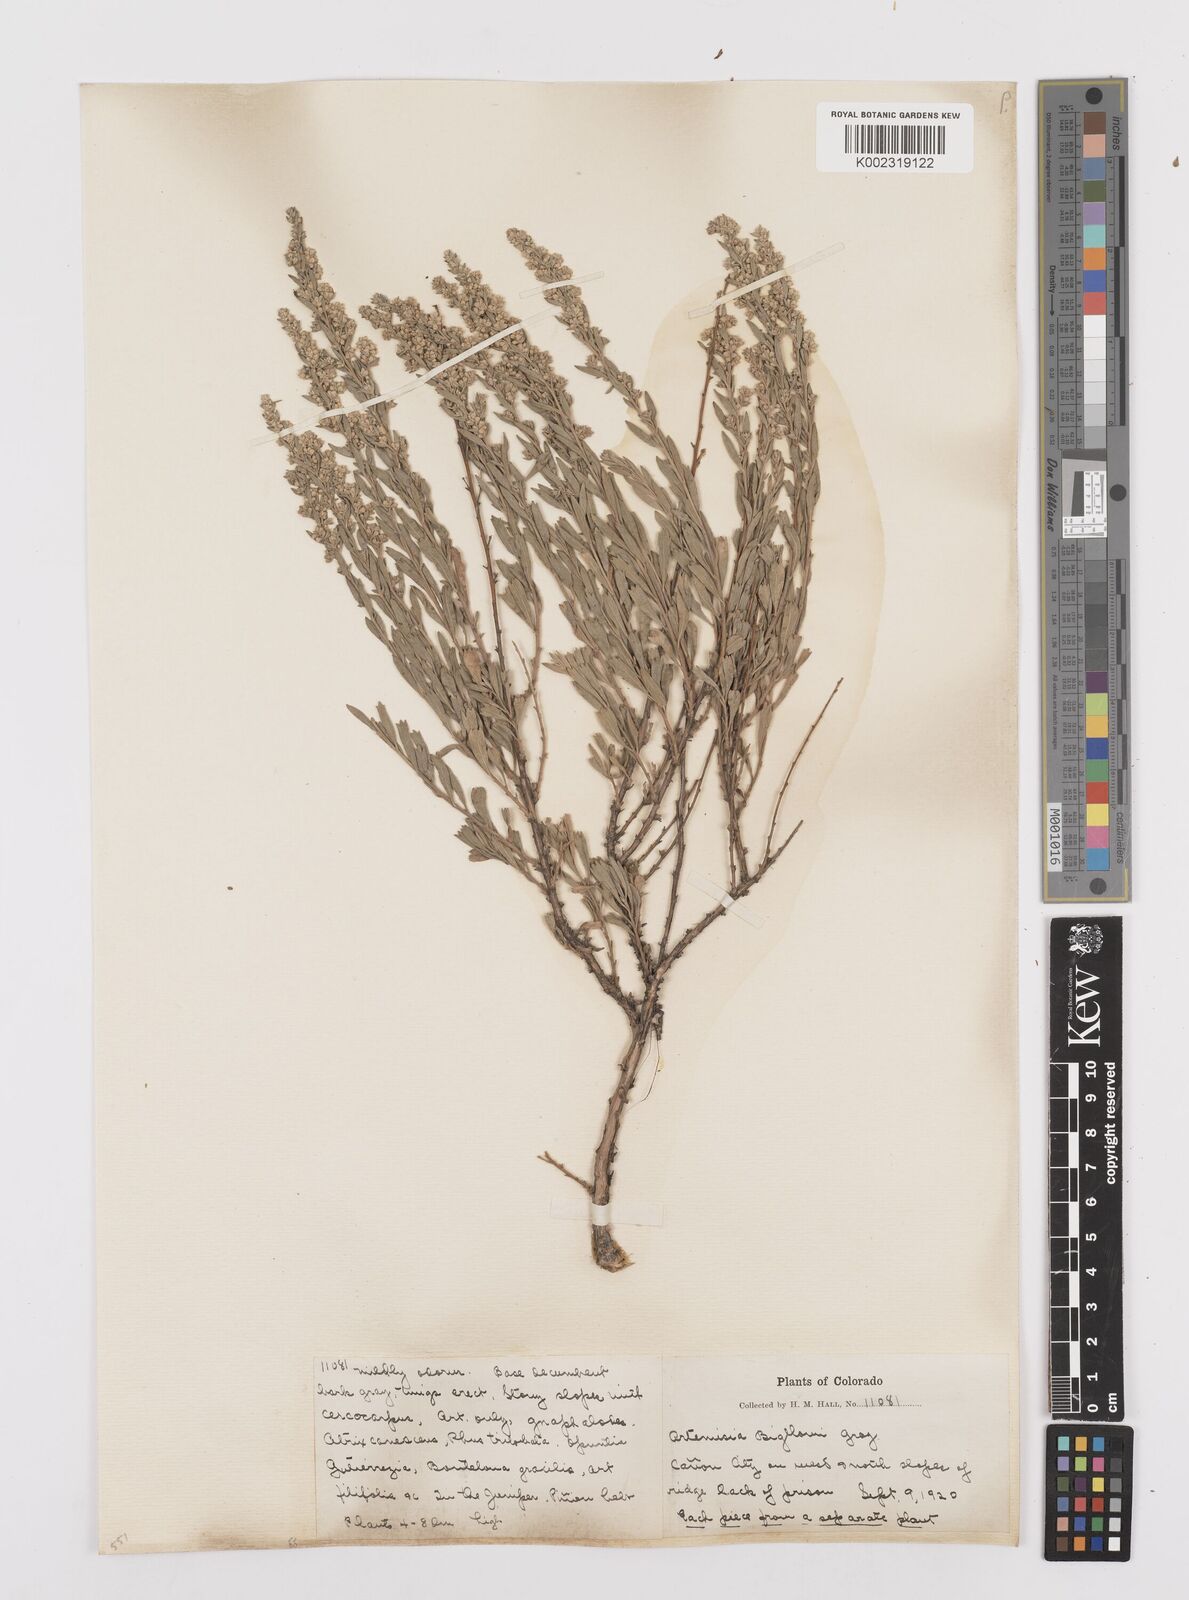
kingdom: Plantae
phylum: Tracheophyta
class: Magnoliopsida
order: Asterales
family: Asteraceae
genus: Artemisia
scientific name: Artemisia cana
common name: Silver sagebrush
